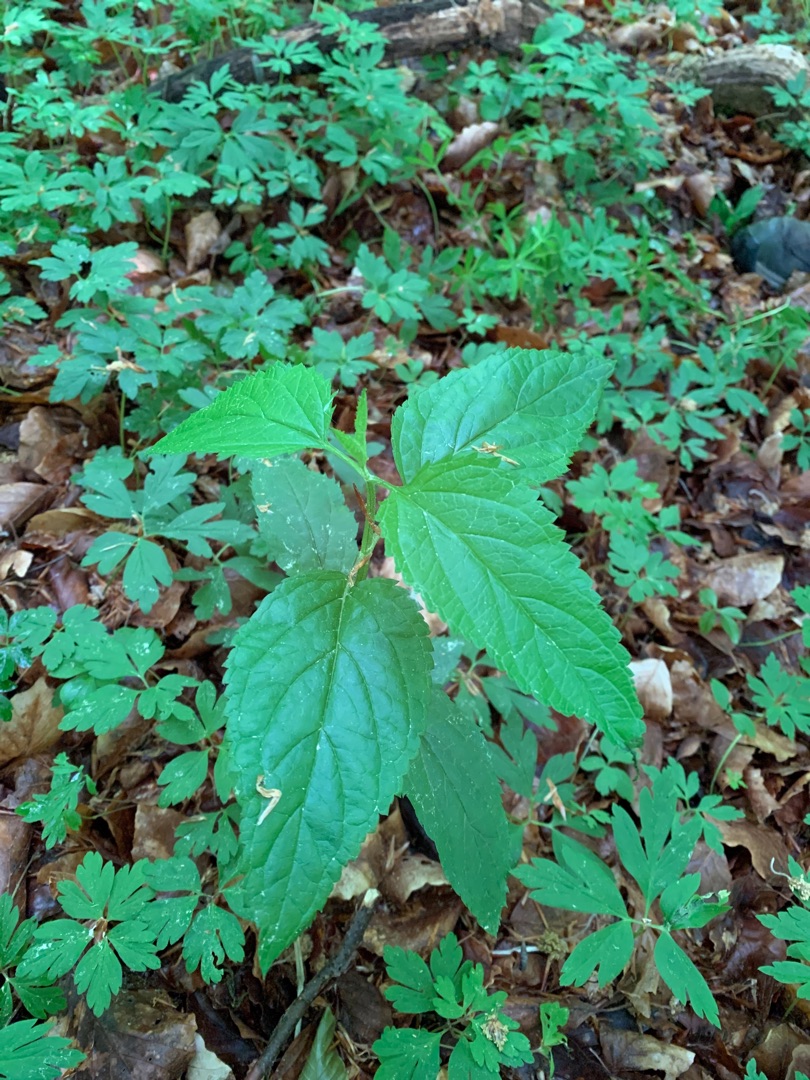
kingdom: Plantae
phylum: Tracheophyta
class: Magnoliopsida
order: Lamiales
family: Scrophulariaceae
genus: Scrophularia
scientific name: Scrophularia nodosa
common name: Knoldet brunrod
